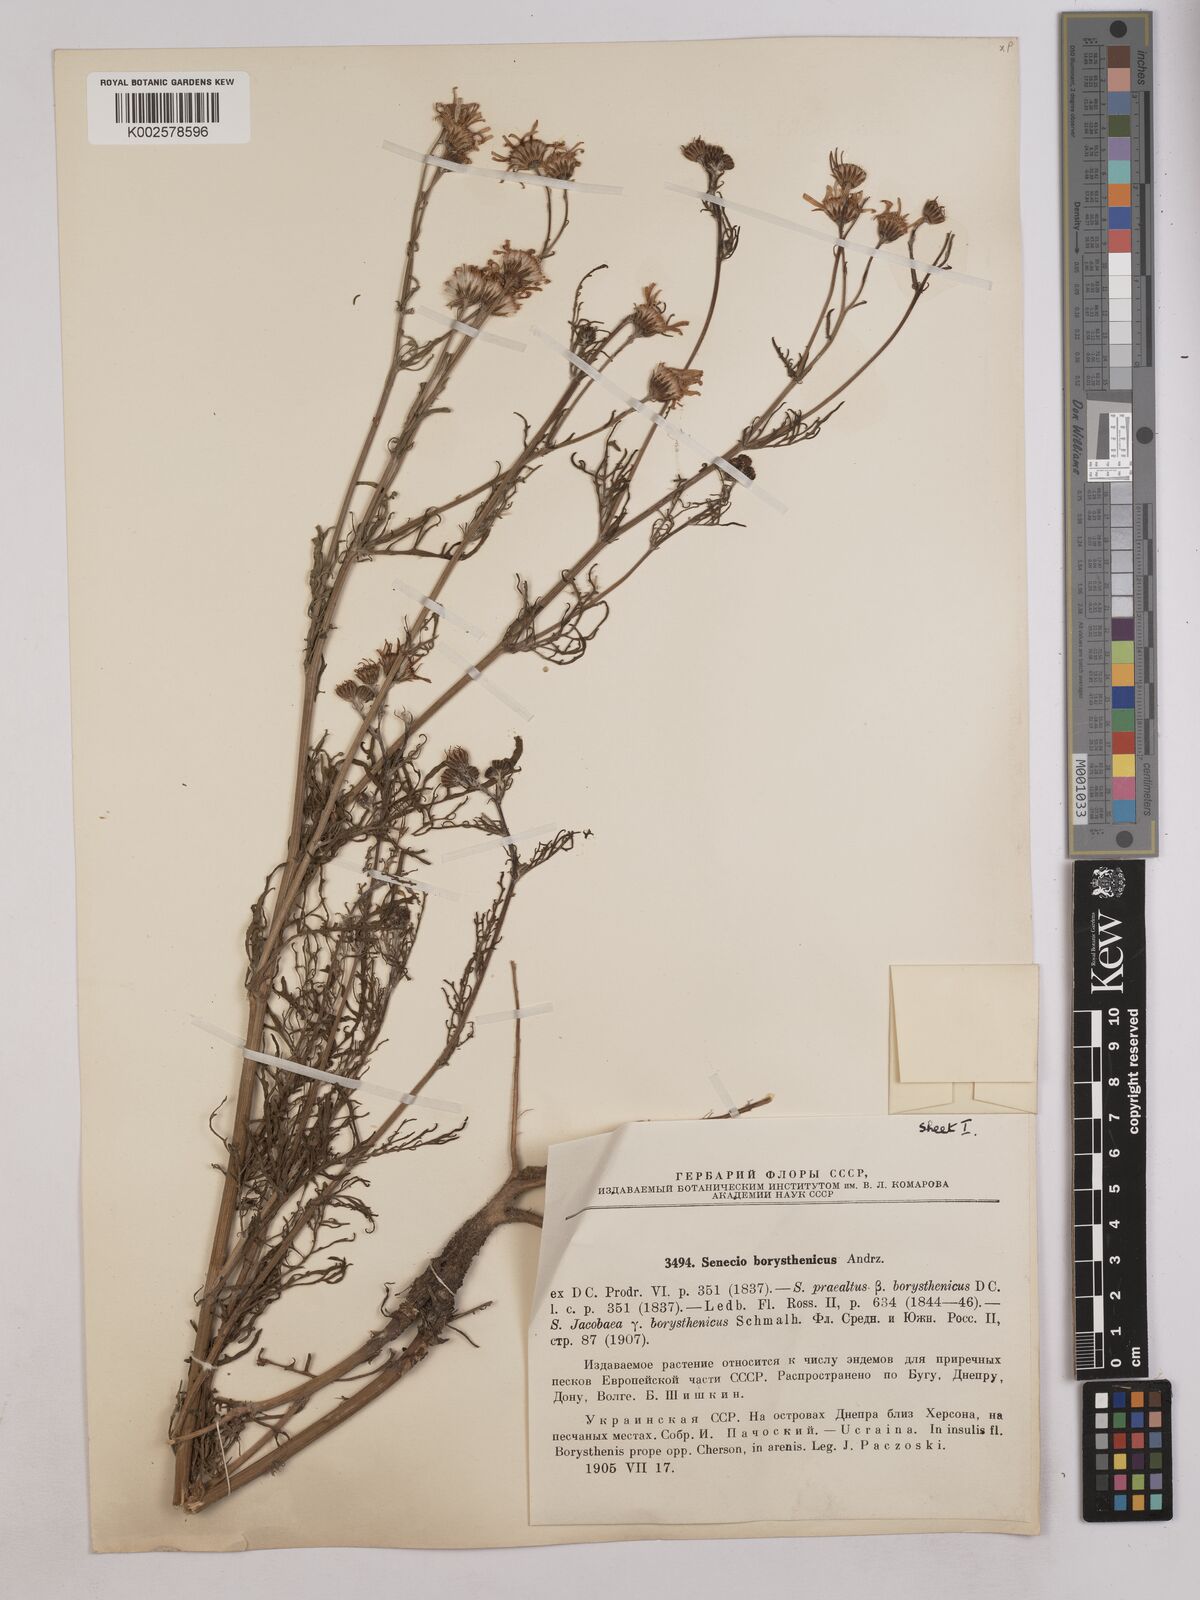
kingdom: Plantae
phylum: Tracheophyta
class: Magnoliopsida
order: Asterales
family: Asteraceae
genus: Jacobaea
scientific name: Jacobaea vulgaris
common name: Stinking willie
